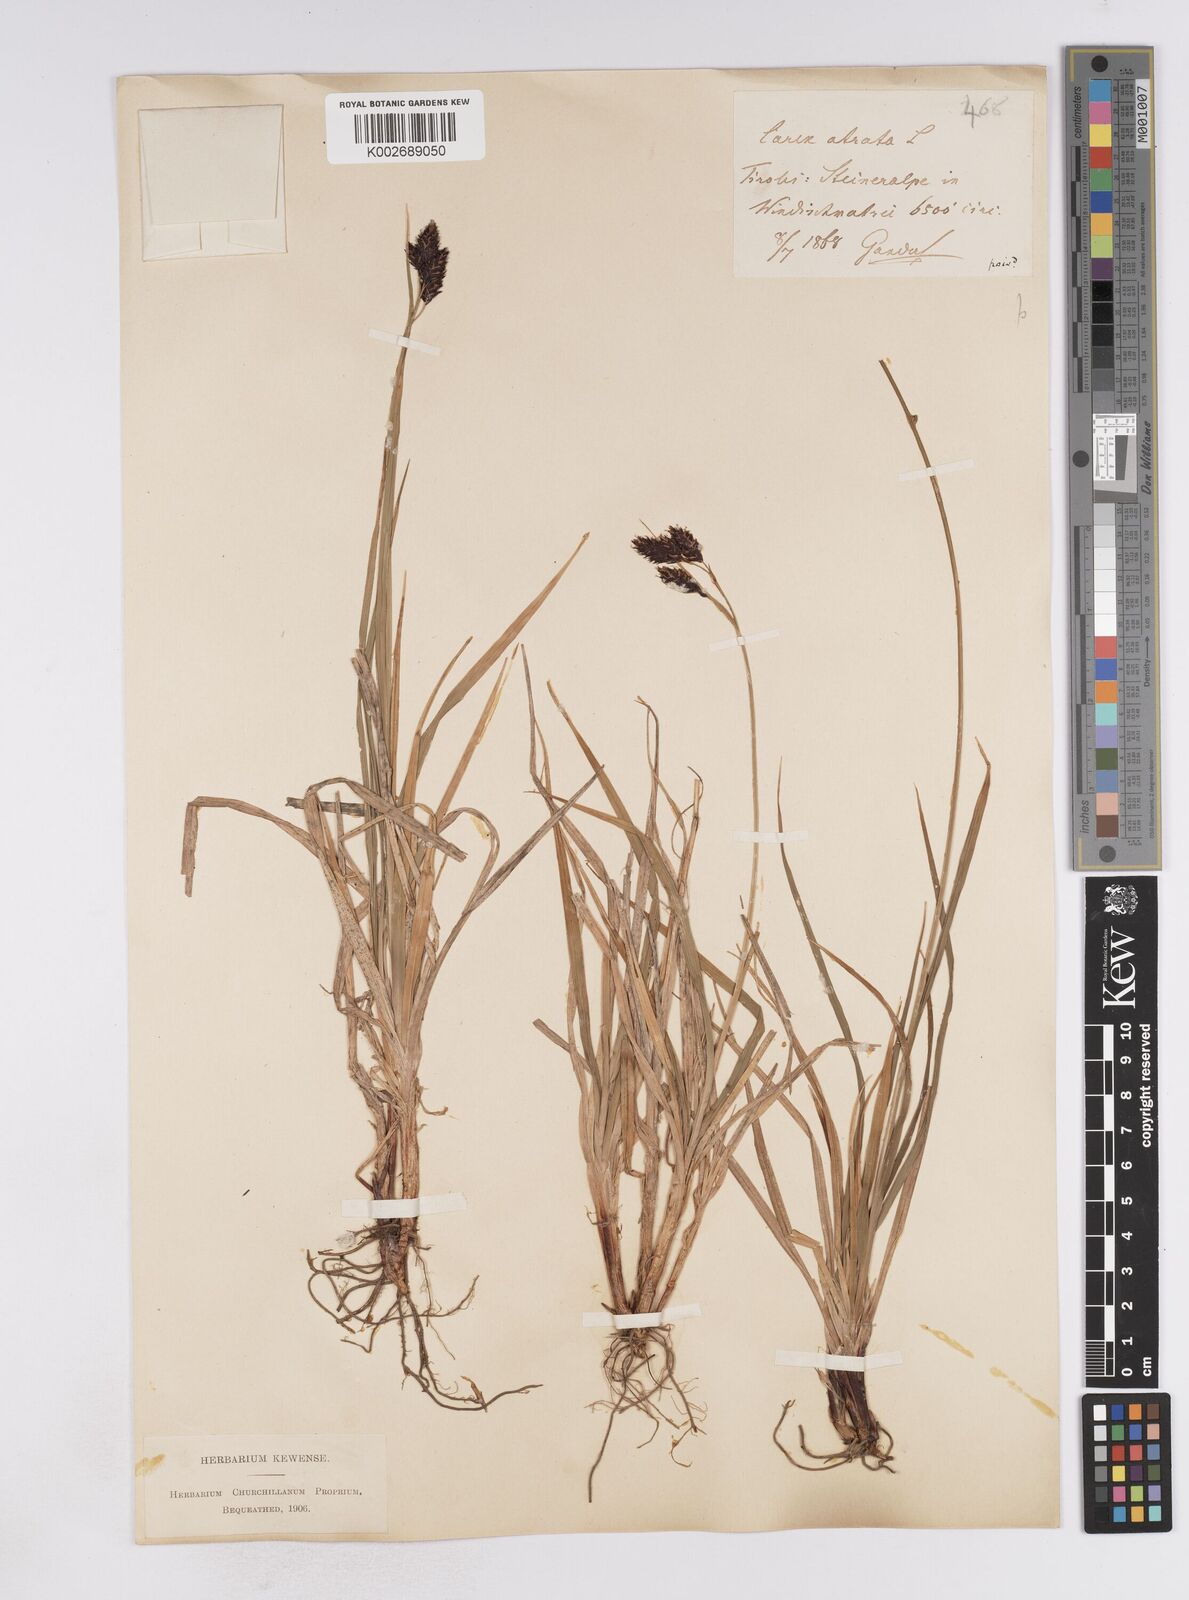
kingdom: Plantae
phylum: Tracheophyta
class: Liliopsida
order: Poales
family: Cyperaceae
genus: Carex
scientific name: Carex atrata
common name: Black alpine sedge
